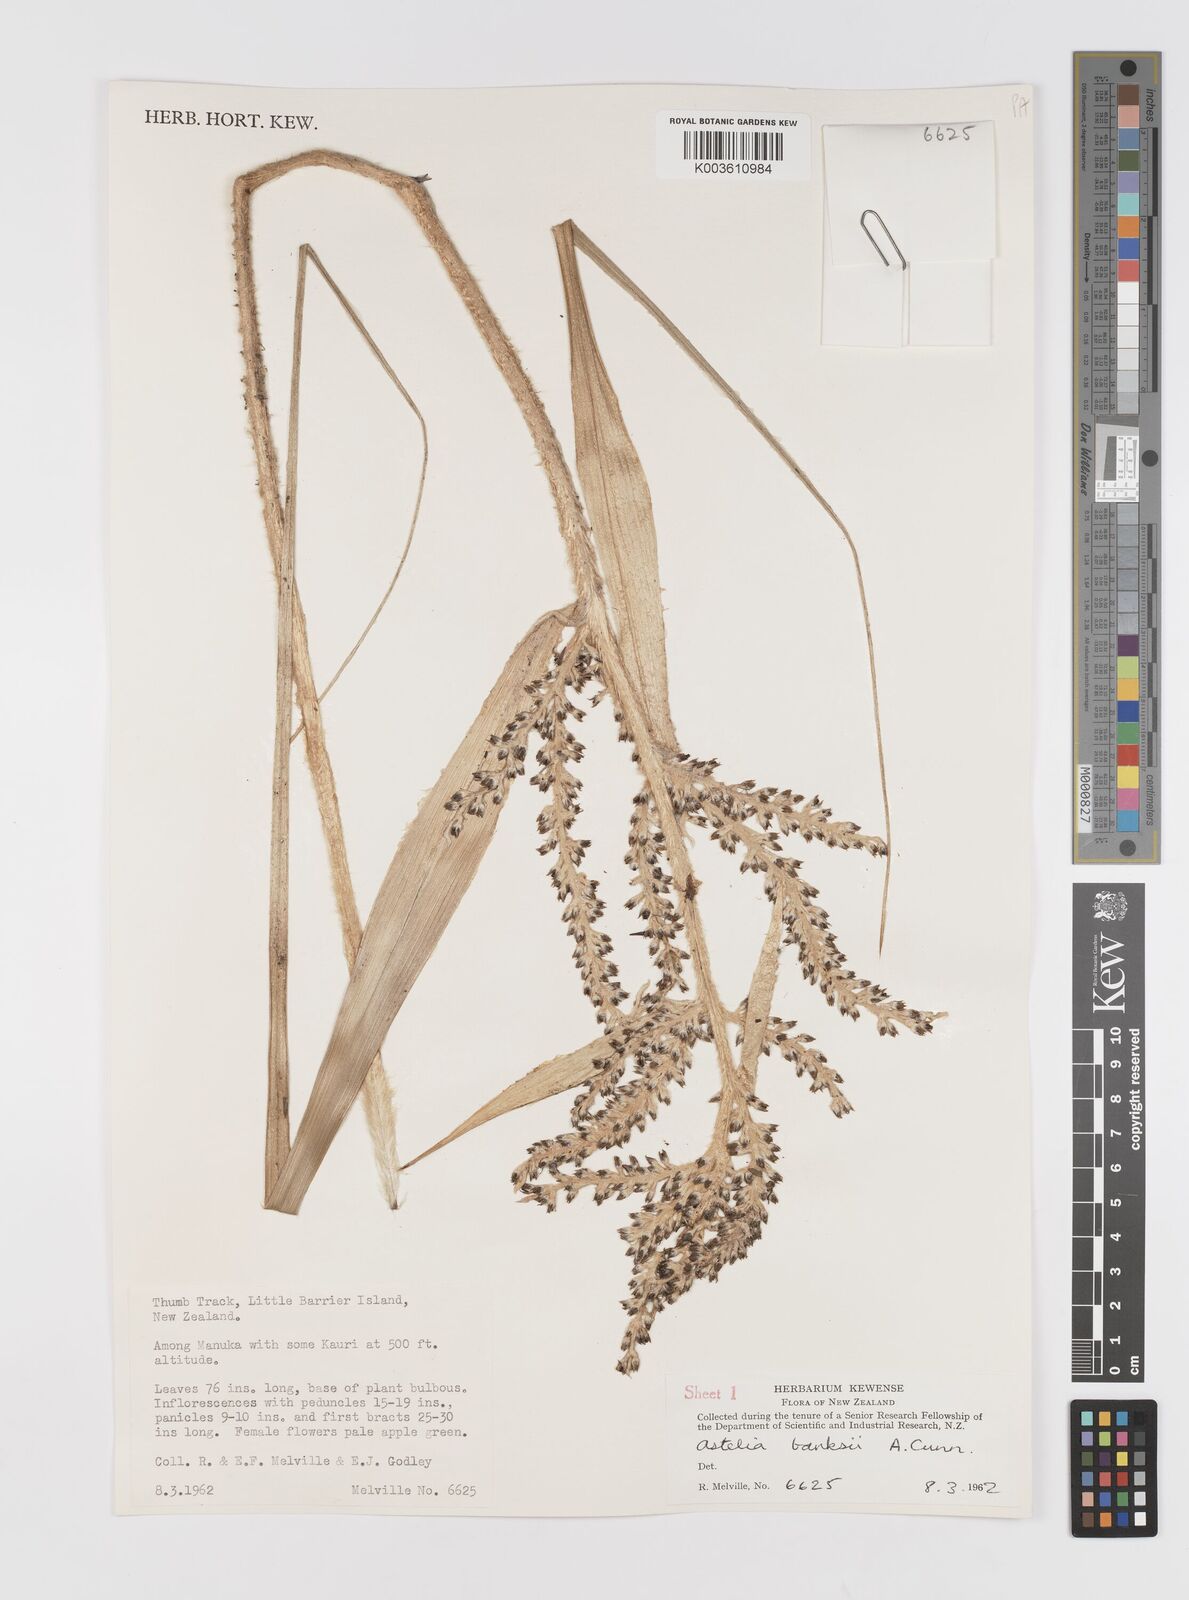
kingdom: Plantae
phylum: Tracheophyta
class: Liliopsida
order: Asparagales
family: Asteliaceae
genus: Astelia
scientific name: Astelia banksii
